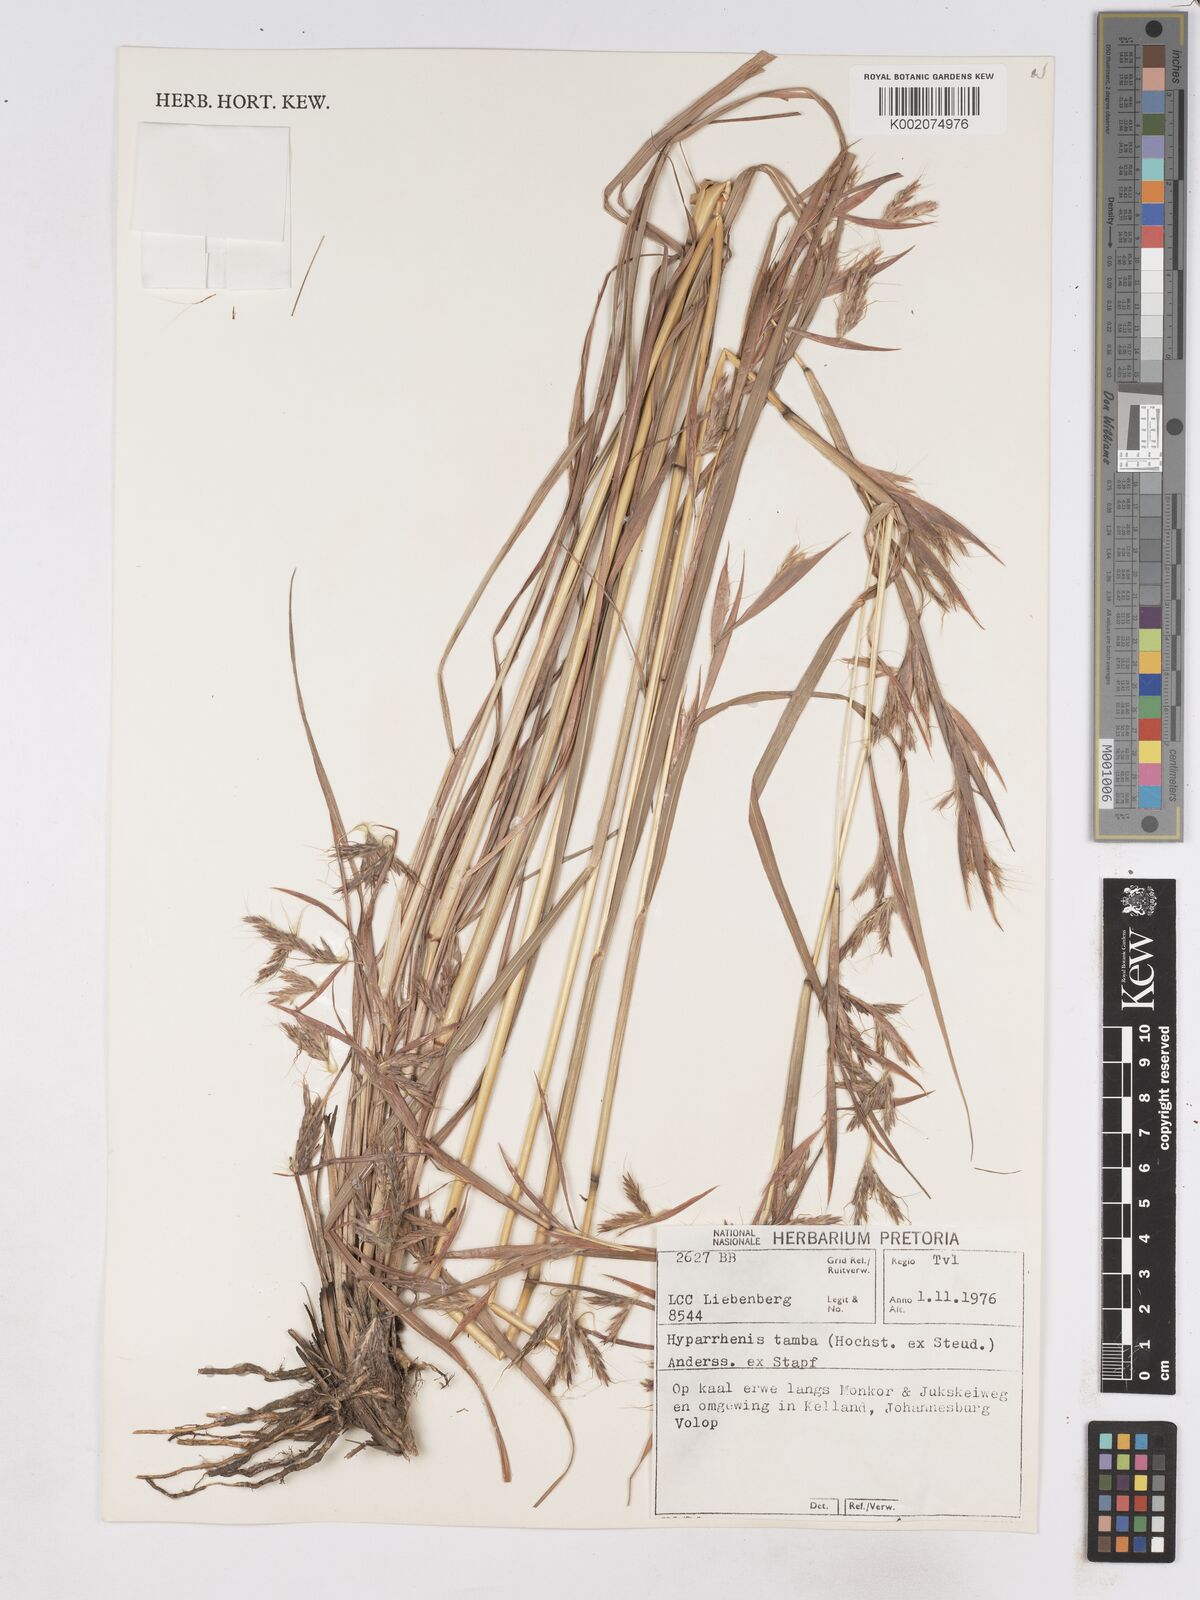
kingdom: Plantae
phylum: Tracheophyta
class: Liliopsida
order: Poales
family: Poaceae
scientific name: Poaceae
